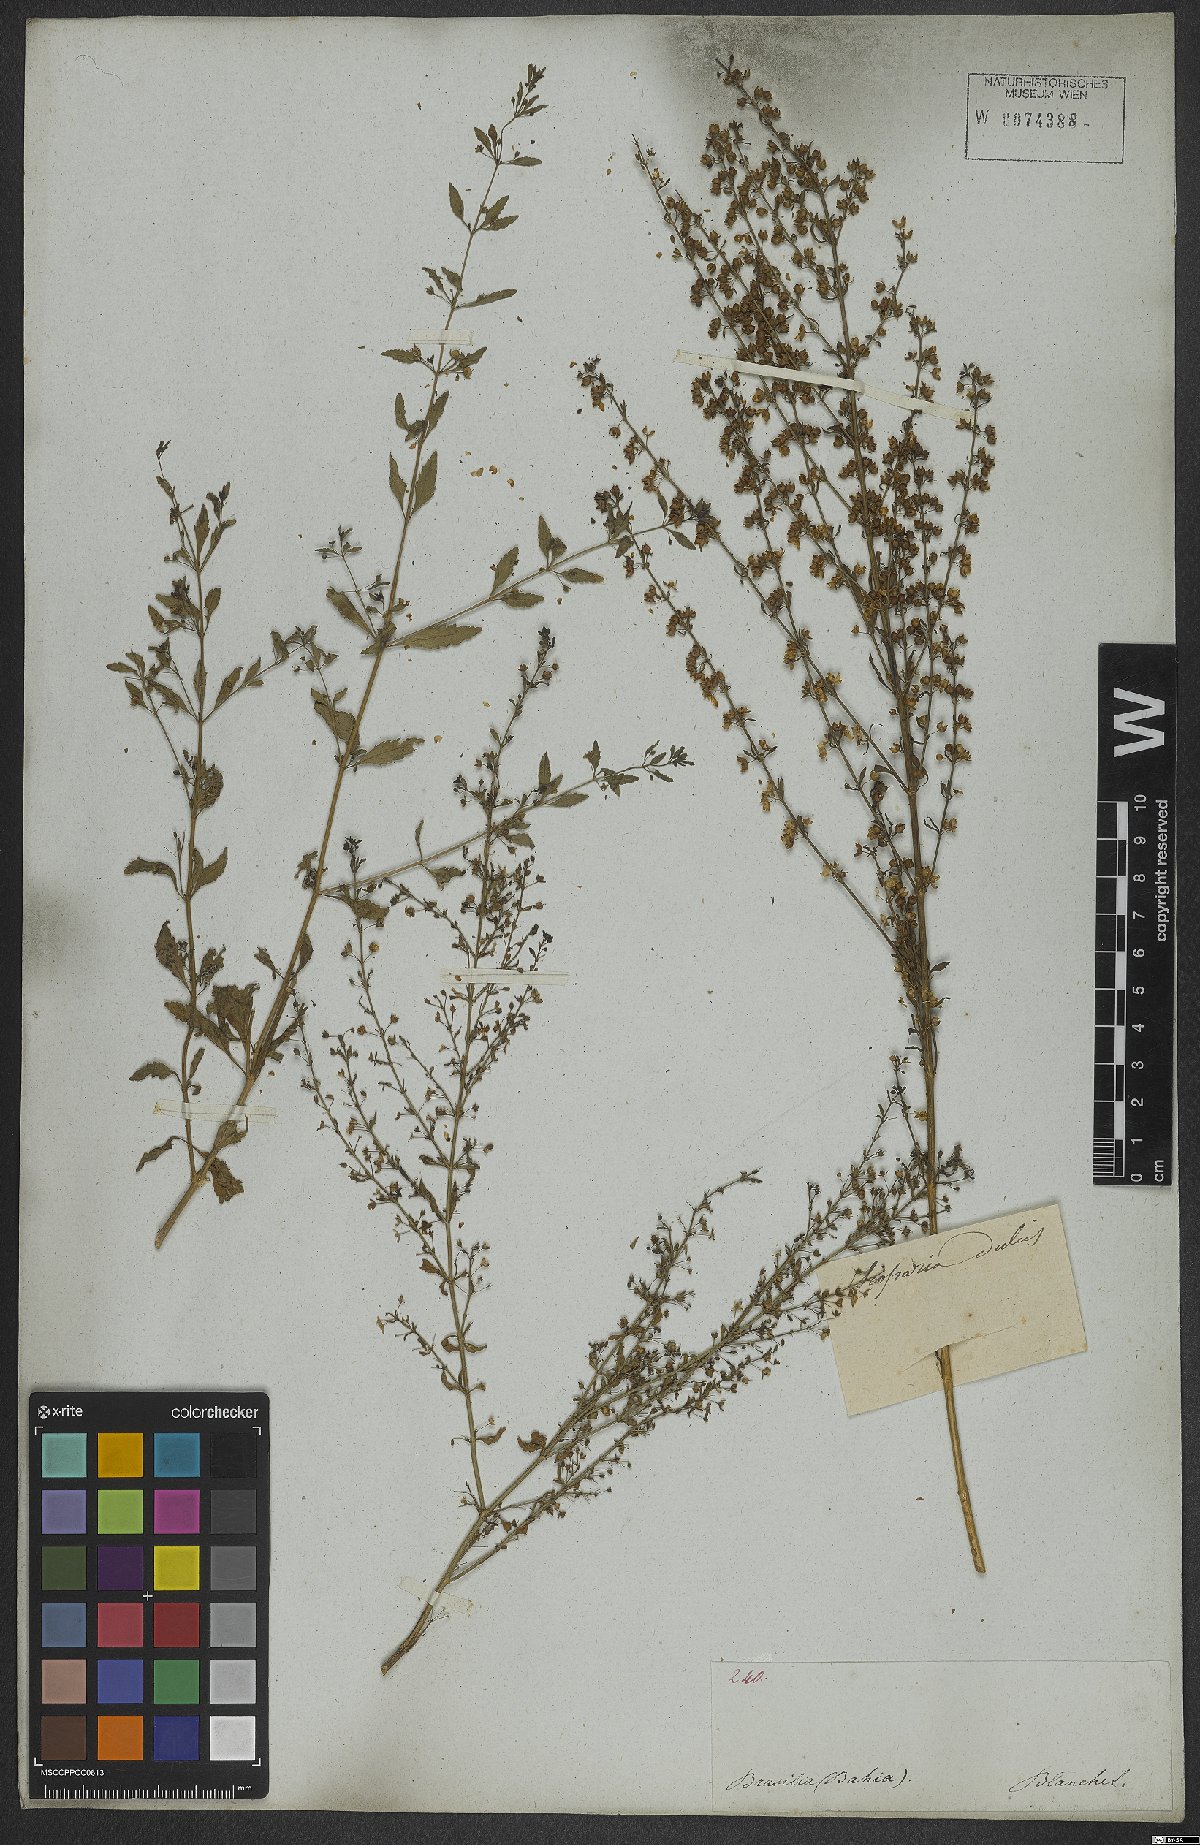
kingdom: Plantae
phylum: Tracheophyta
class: Magnoliopsida
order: Lamiales
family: Plantaginaceae
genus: Scoparia
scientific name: Scoparia dulcis
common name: Scoparia-weed
